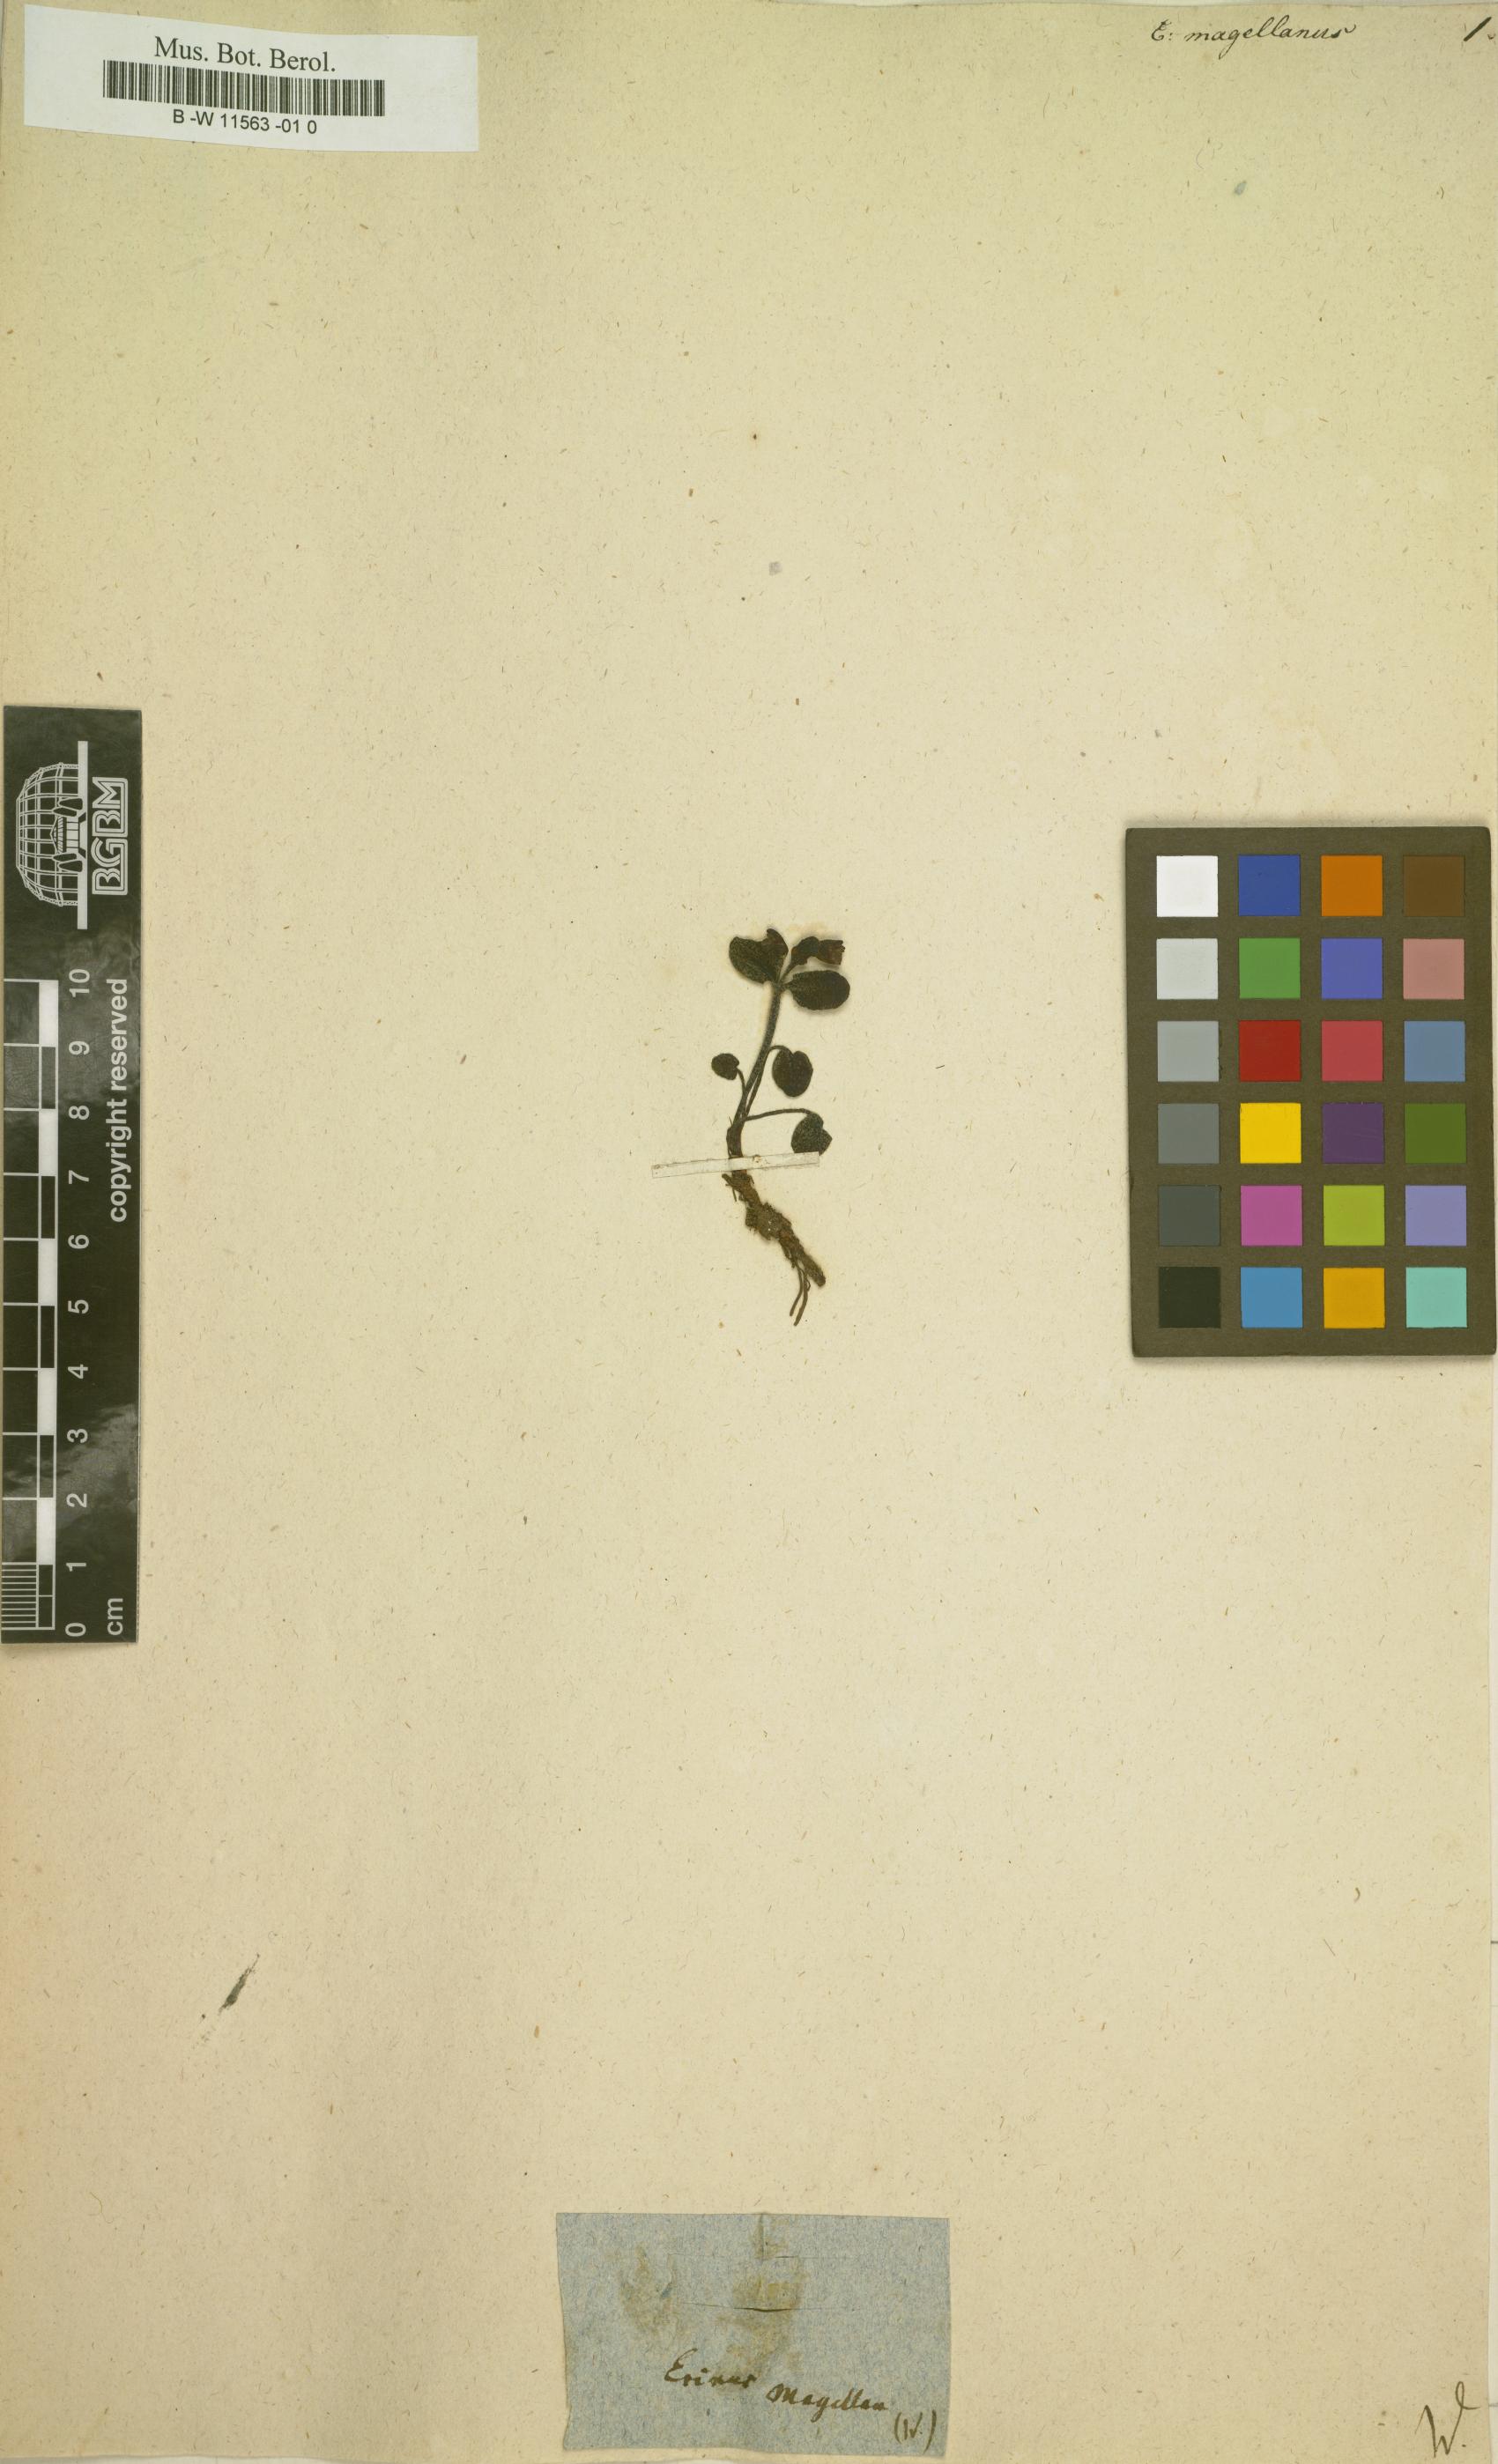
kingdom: Plantae
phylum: Tracheophyta
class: Magnoliopsida
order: Lamiales
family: Scrophulariaceae
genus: Erinus
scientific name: Erinus
